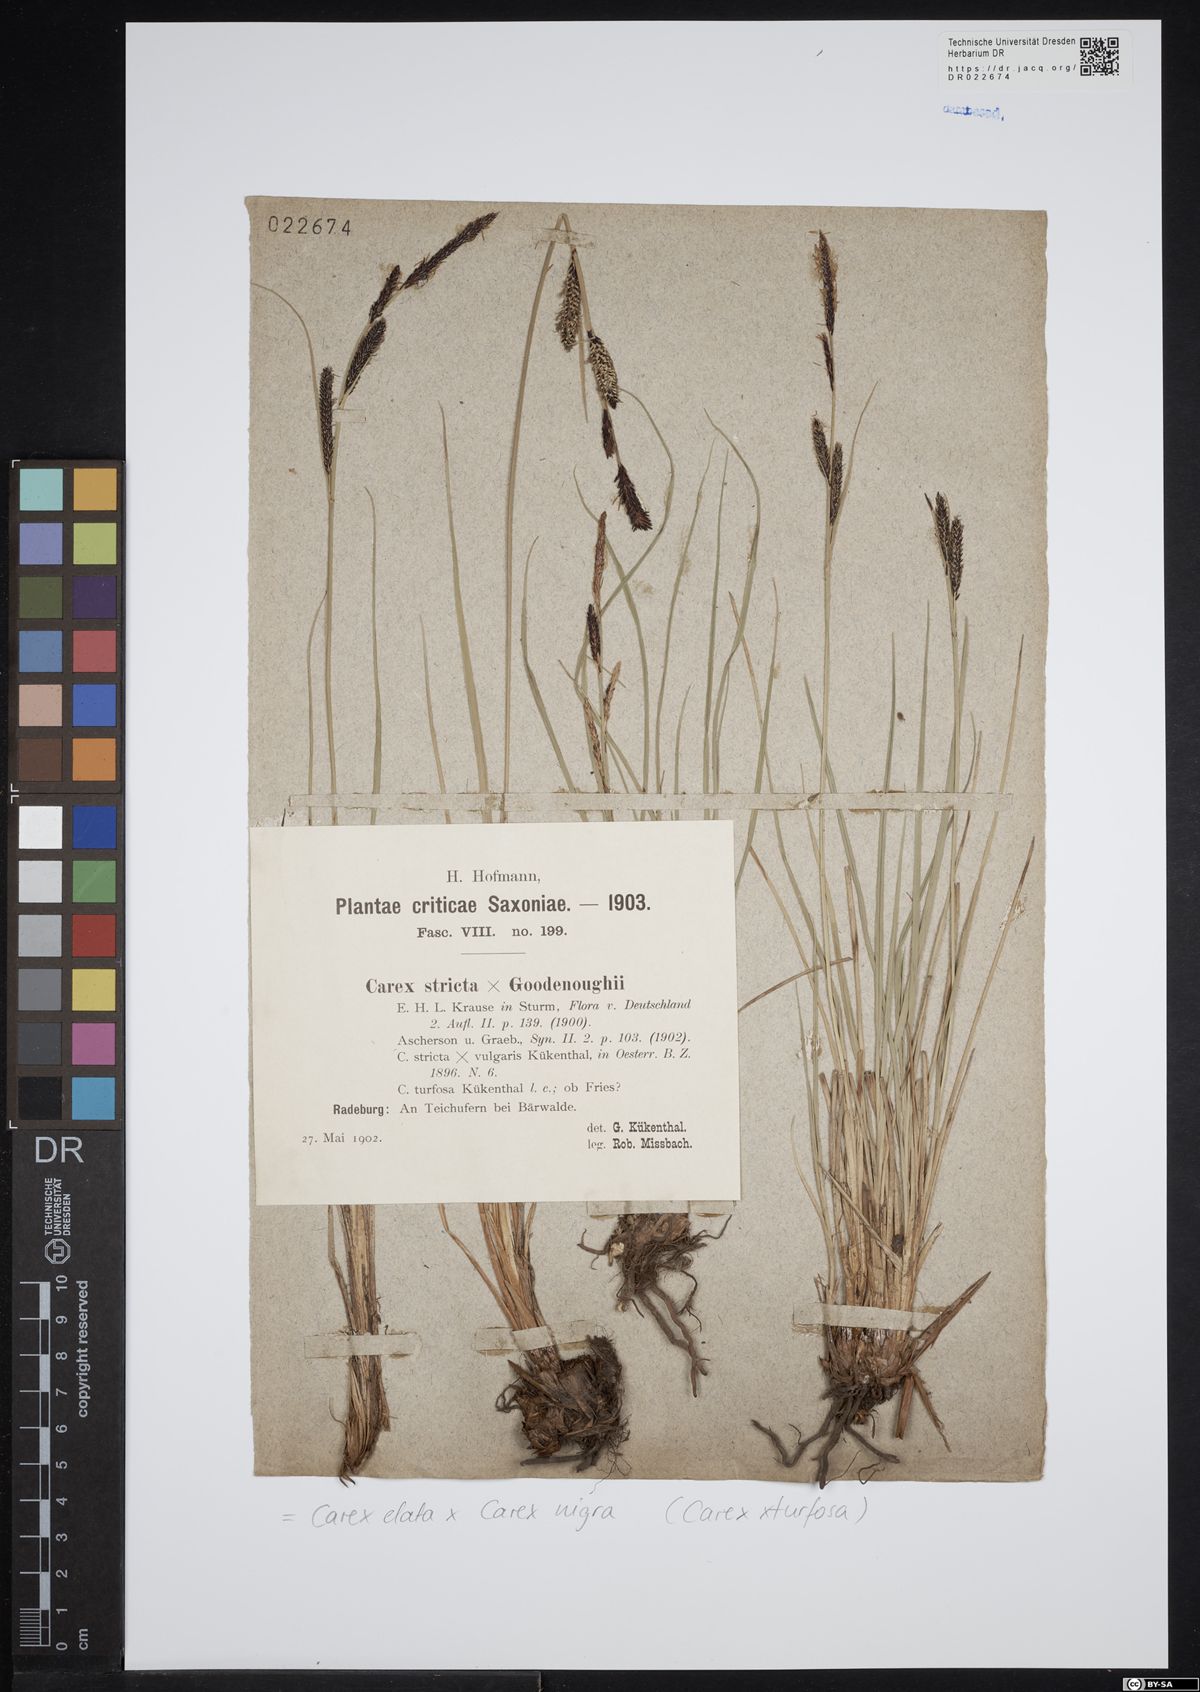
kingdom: Plantae
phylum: Tracheophyta
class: Liliopsida
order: Poales
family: Cyperaceae
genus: Carex
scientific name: Carex turfosa
